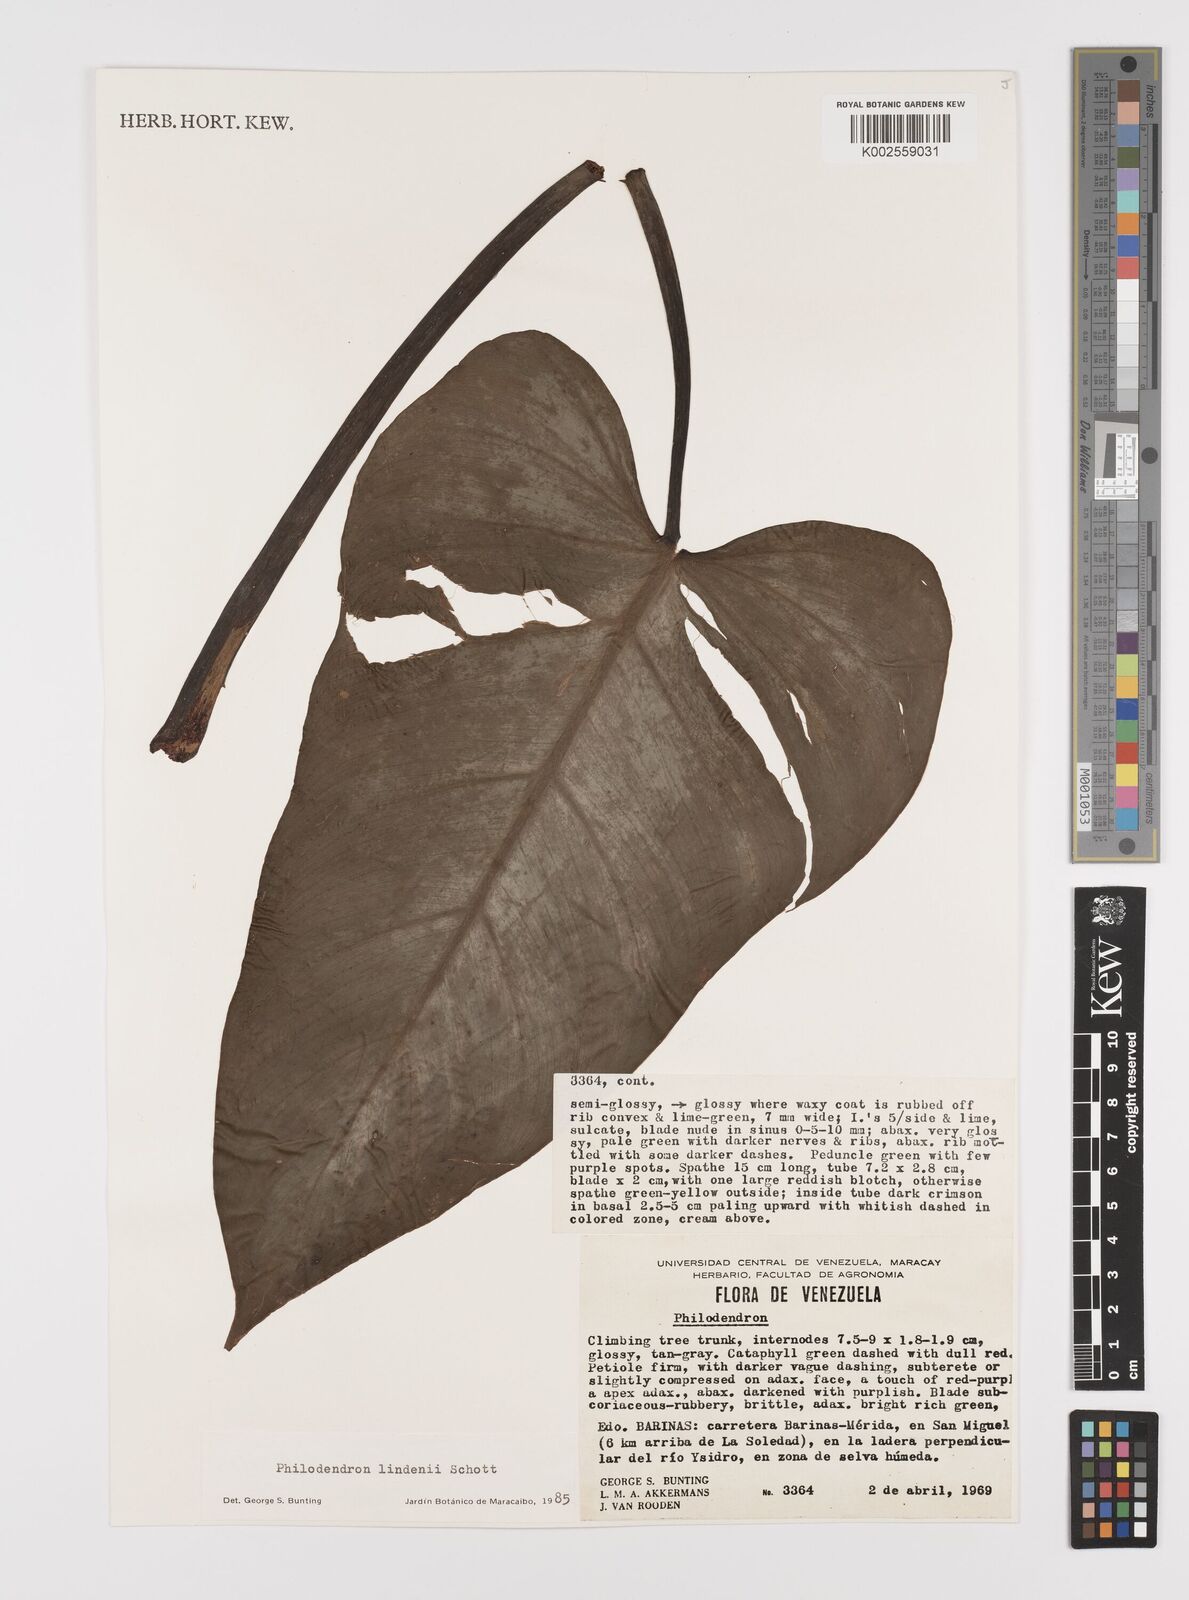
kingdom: Plantae
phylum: Tracheophyta
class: Liliopsida
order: Alismatales
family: Araceae
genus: Philodendron
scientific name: Philodendron lindenii
